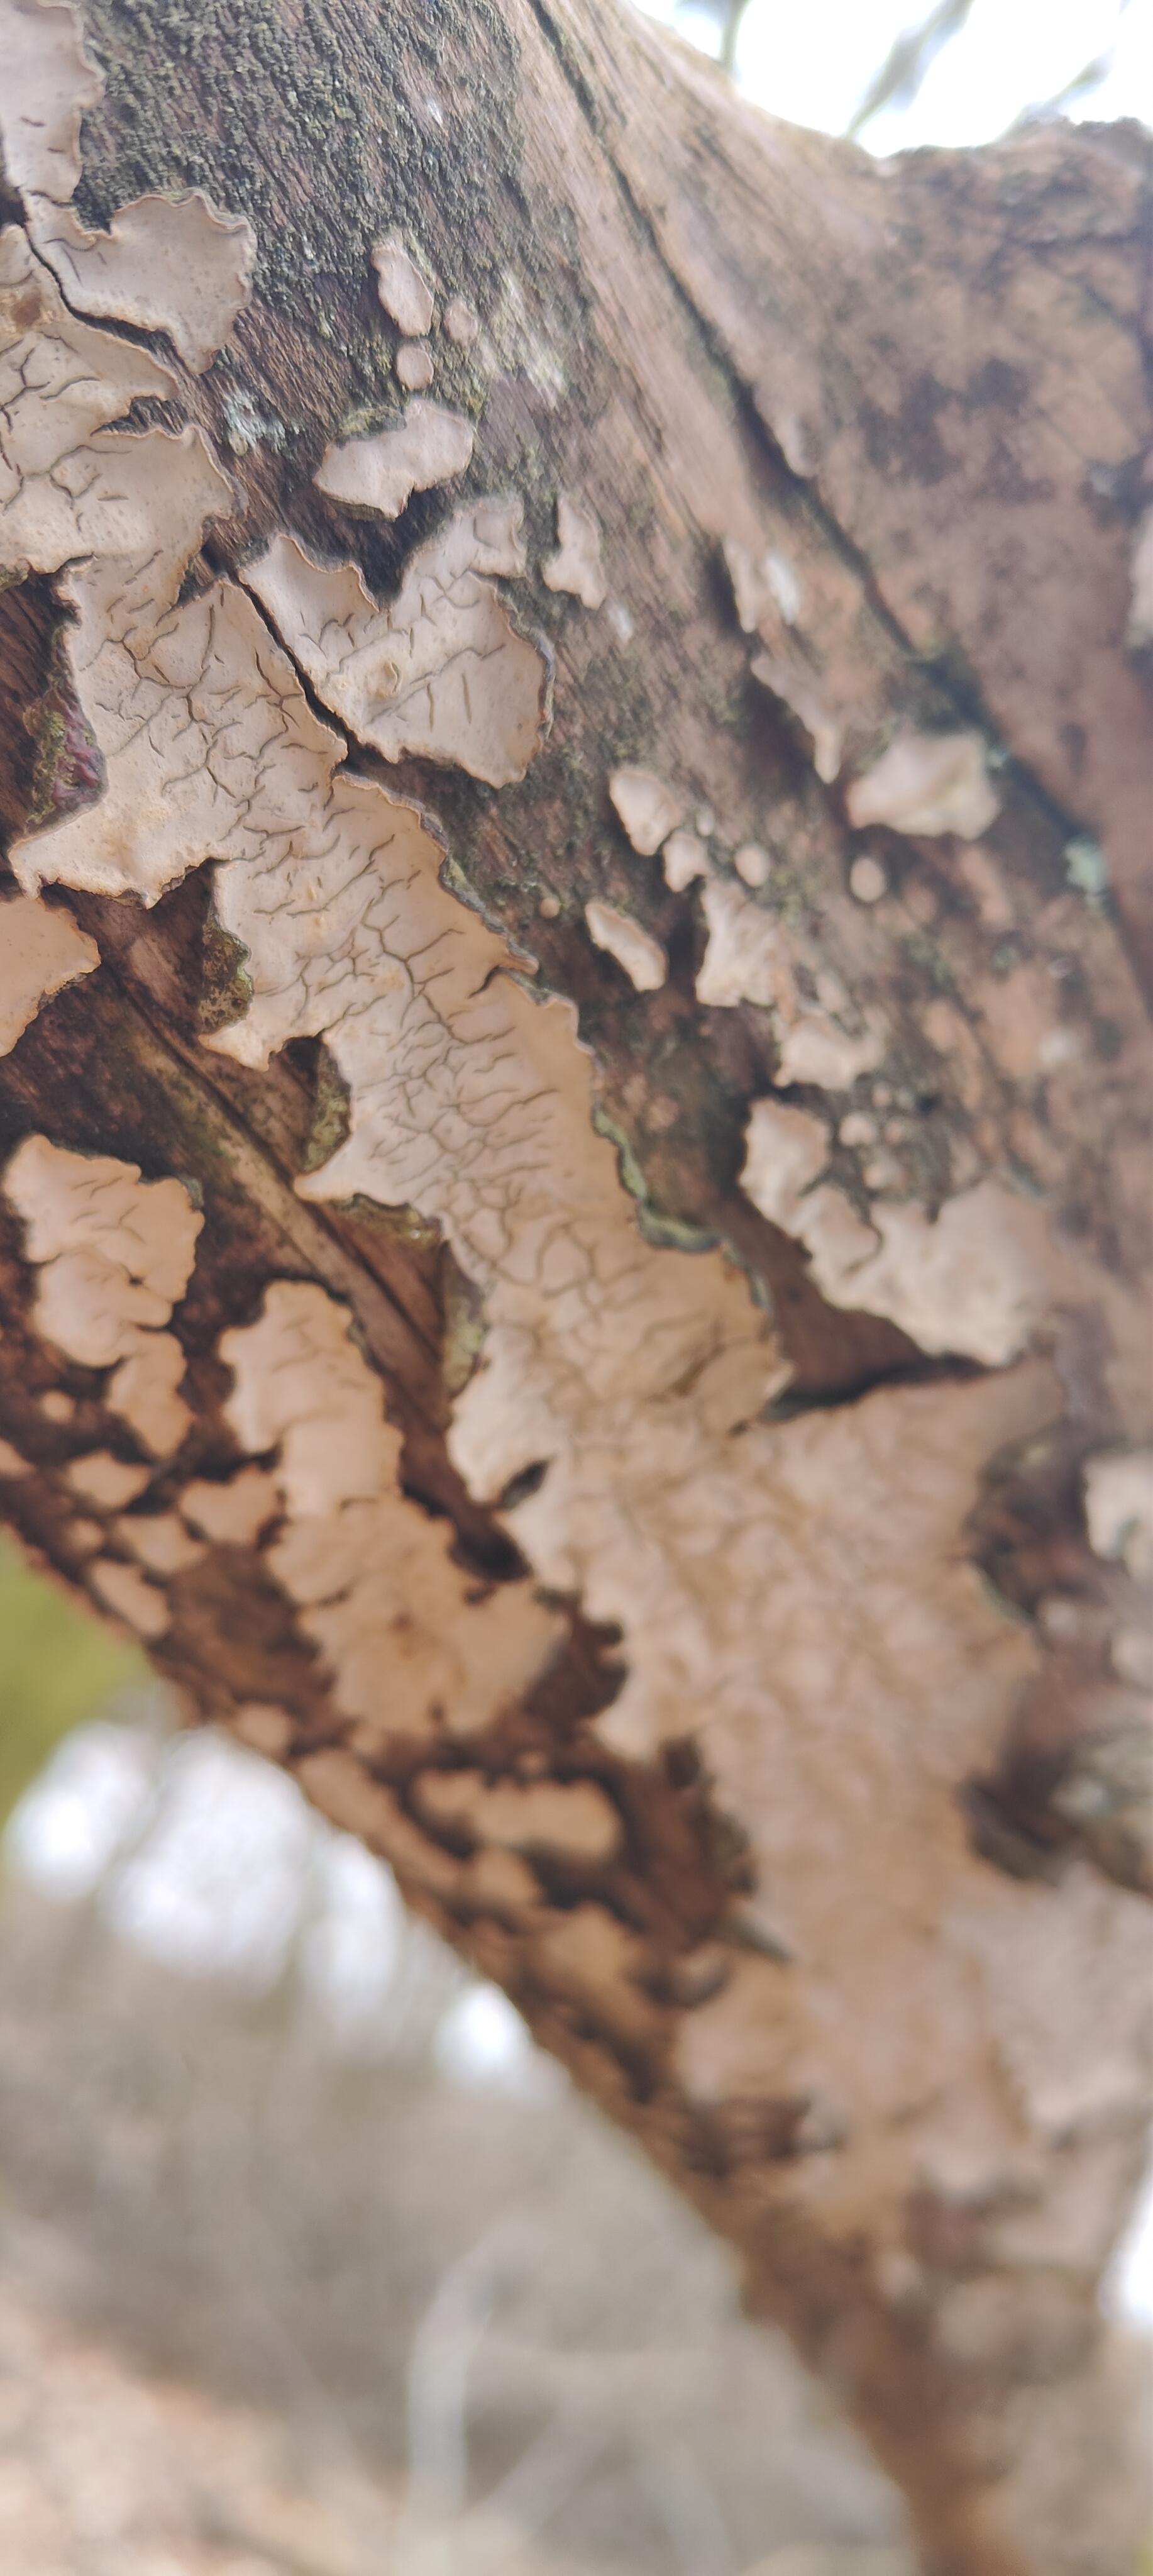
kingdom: Fungi
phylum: Basidiomycota
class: Agaricomycetes
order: Russulales
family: Stereaceae
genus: Stereum
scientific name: Stereum rugosum
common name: rynket lædersvamp
